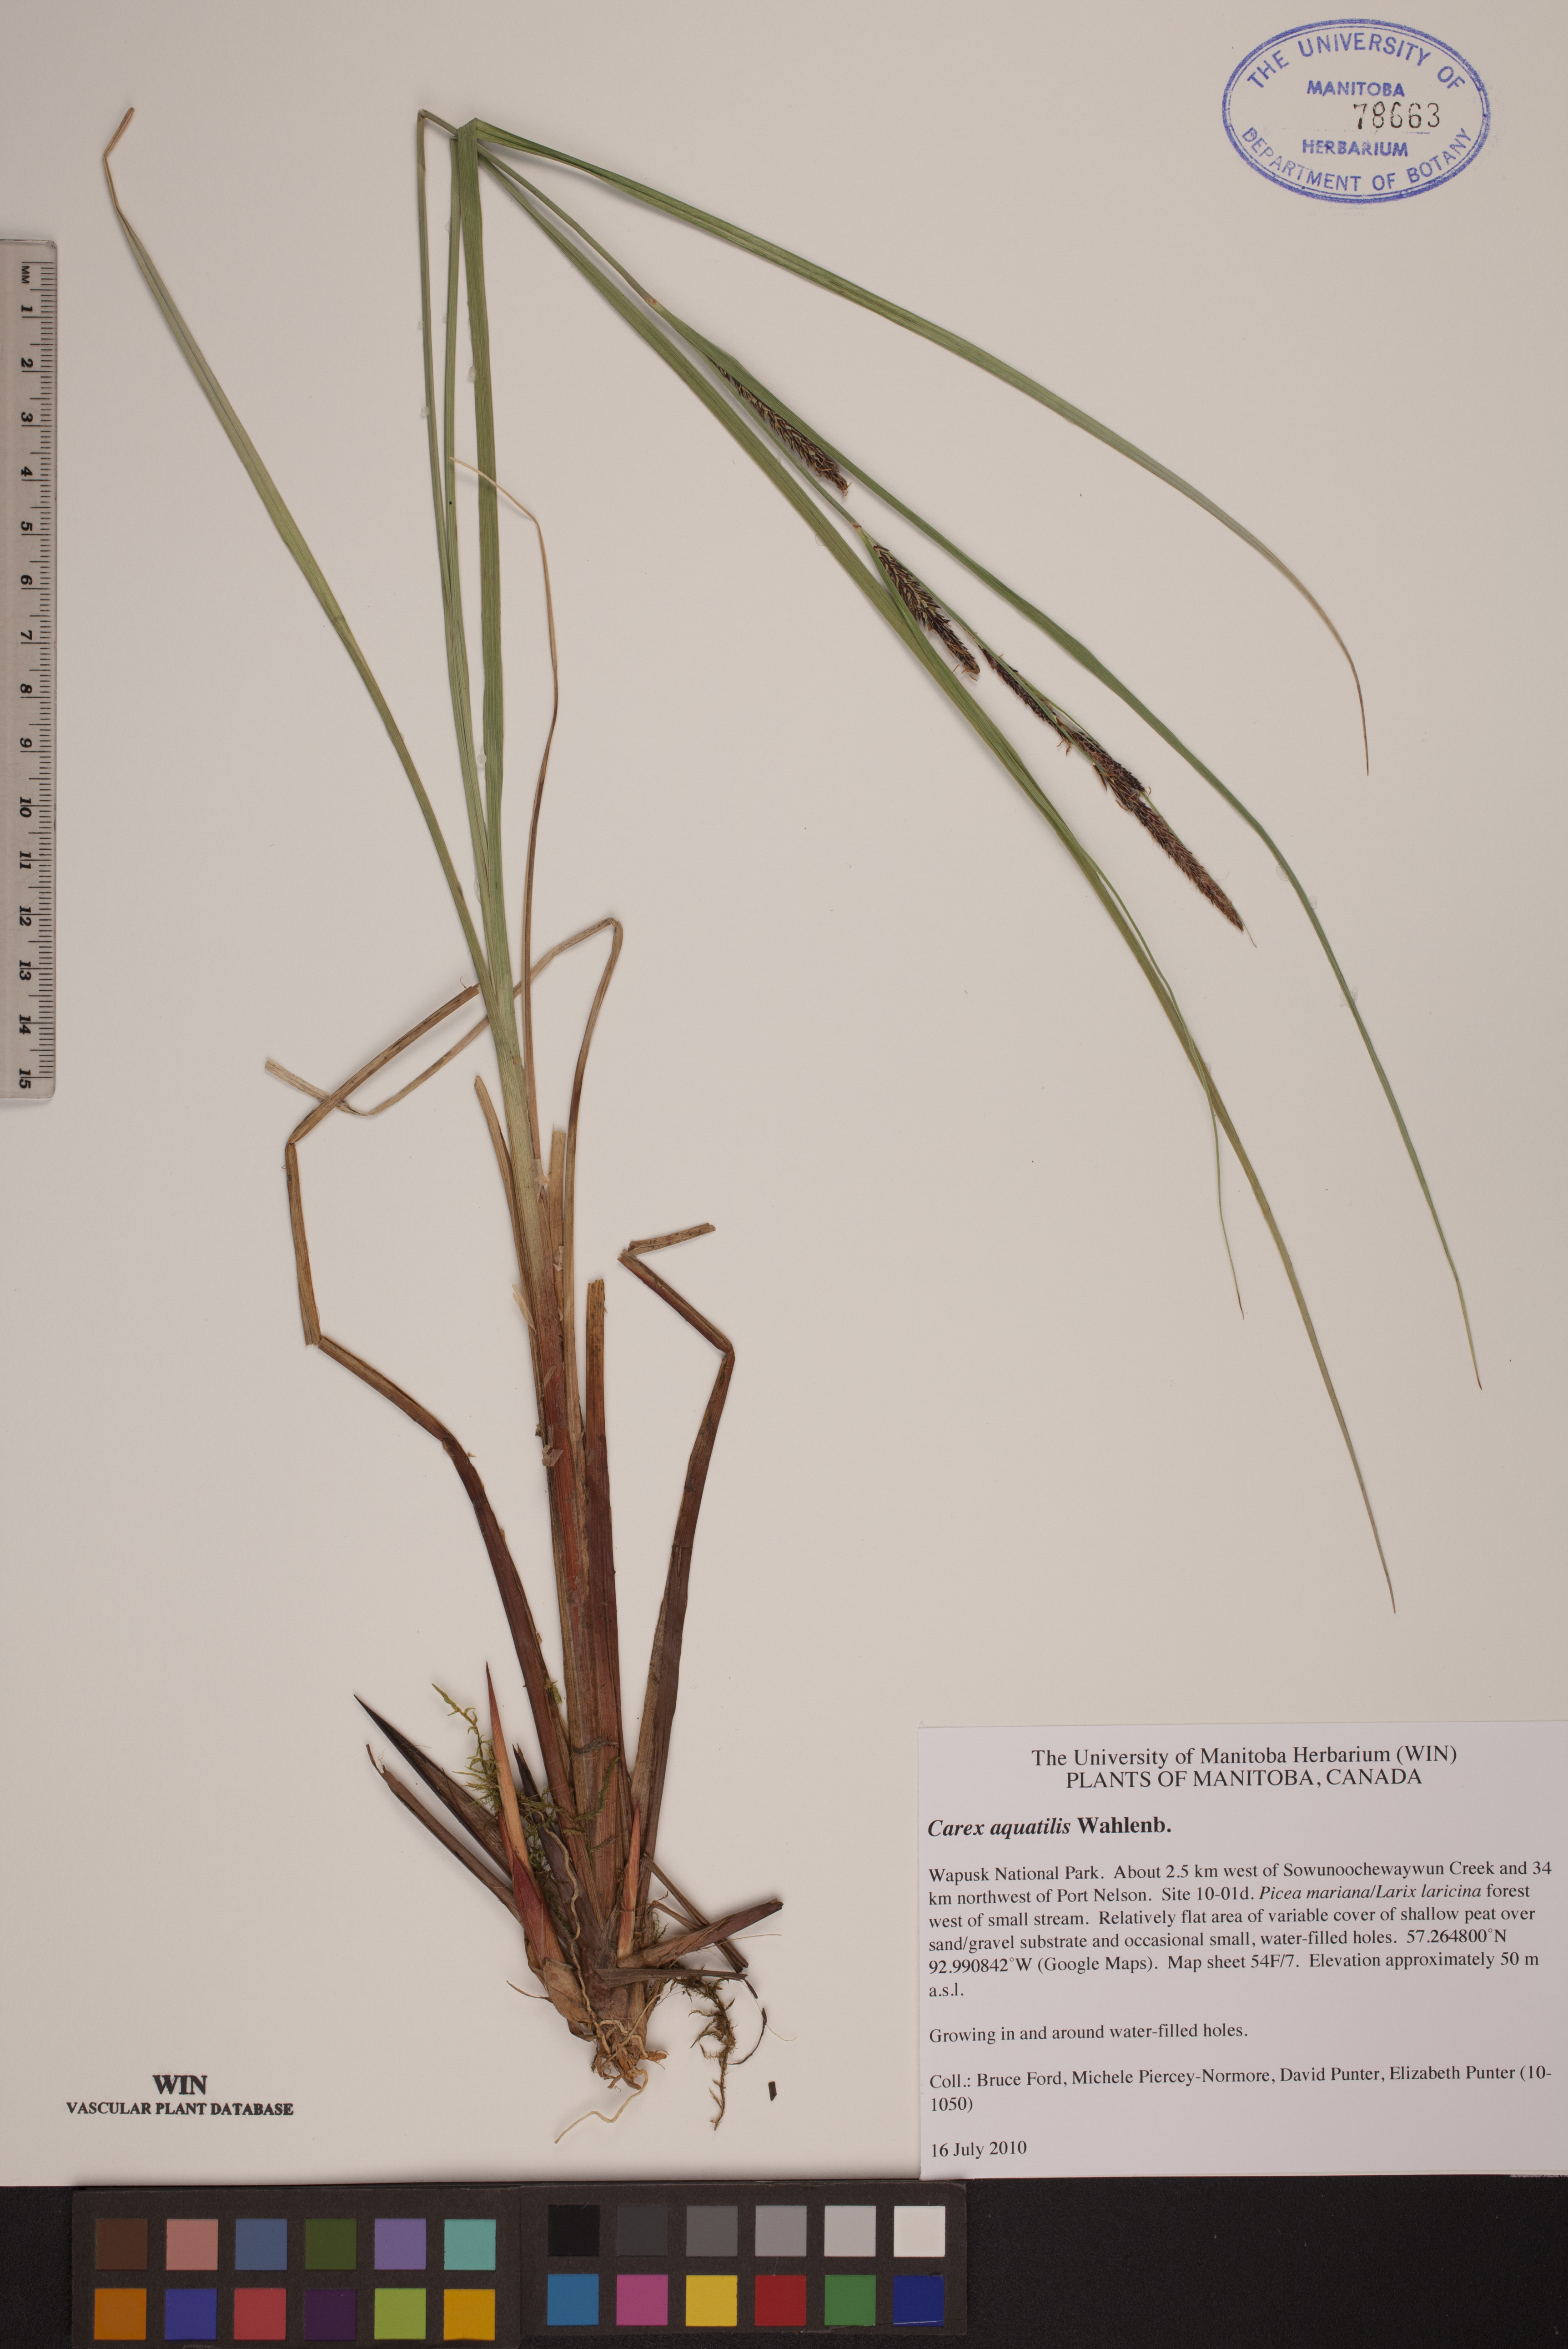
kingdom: Plantae
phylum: Tracheophyta
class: Liliopsida
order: Poales
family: Cyperaceae
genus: Carex
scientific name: Carex aquatilis
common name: Water sedge
